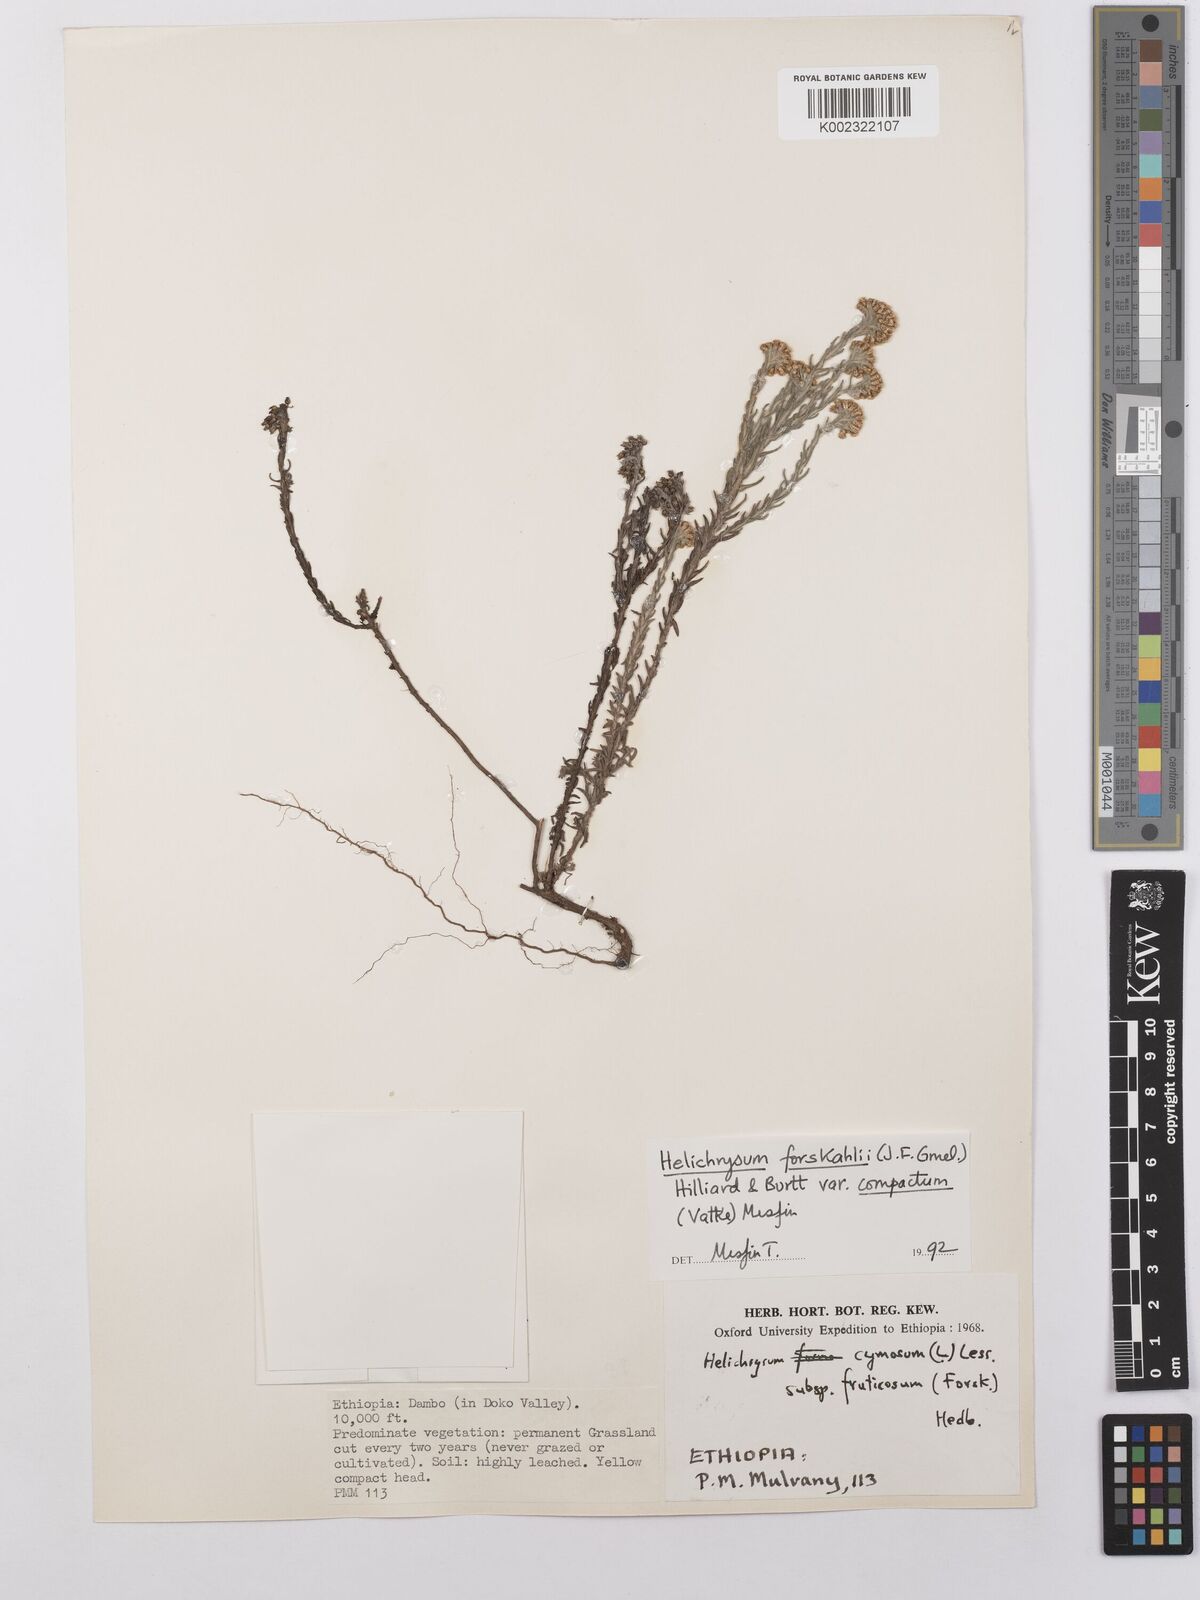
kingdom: Plantae
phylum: Tracheophyta
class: Magnoliopsida
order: Asterales
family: Asteraceae
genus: Helichrysum
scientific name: Helichrysum forskahlii
